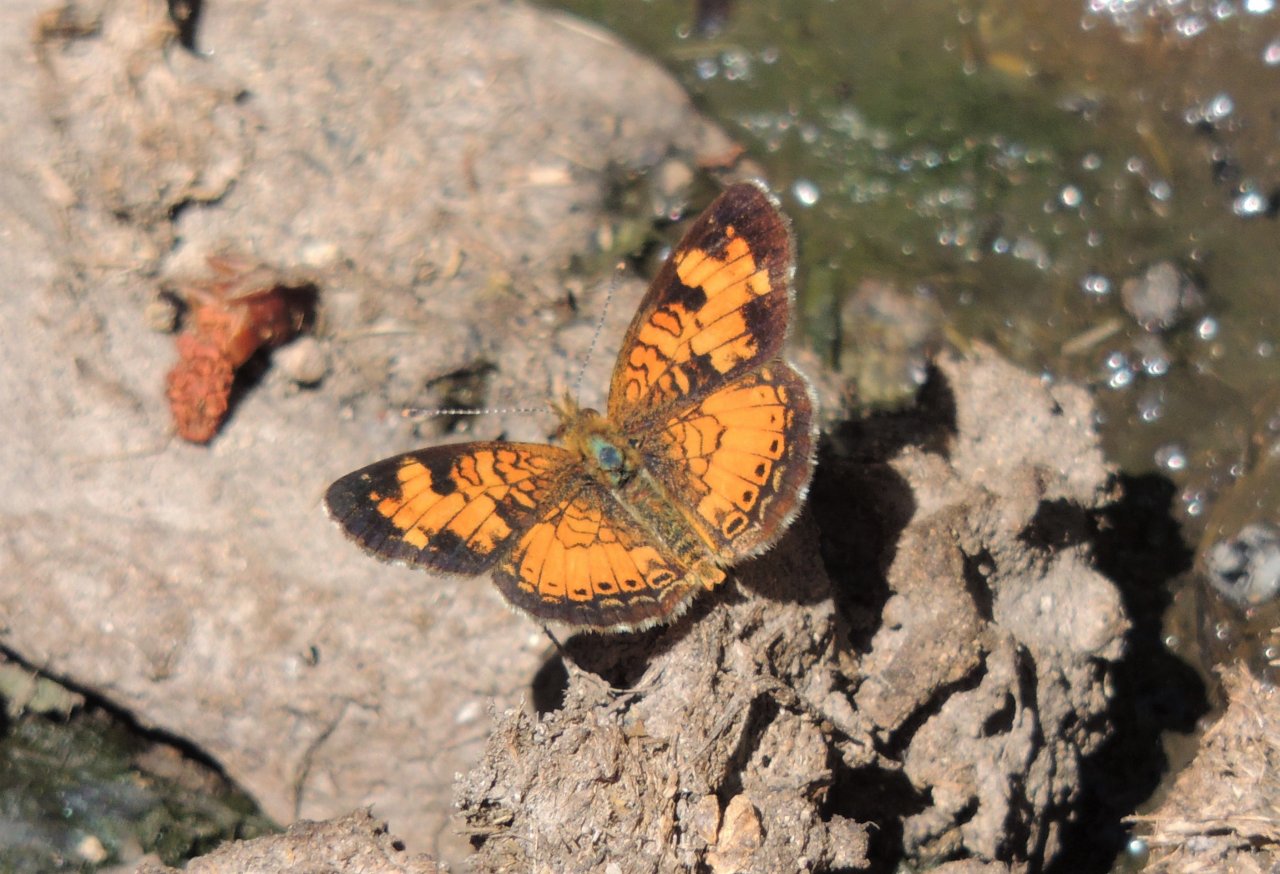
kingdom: Animalia
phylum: Arthropoda
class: Insecta
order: Lepidoptera
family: Nymphalidae
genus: Phyciodes
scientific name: Phyciodes tharos
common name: Northern Crescent
